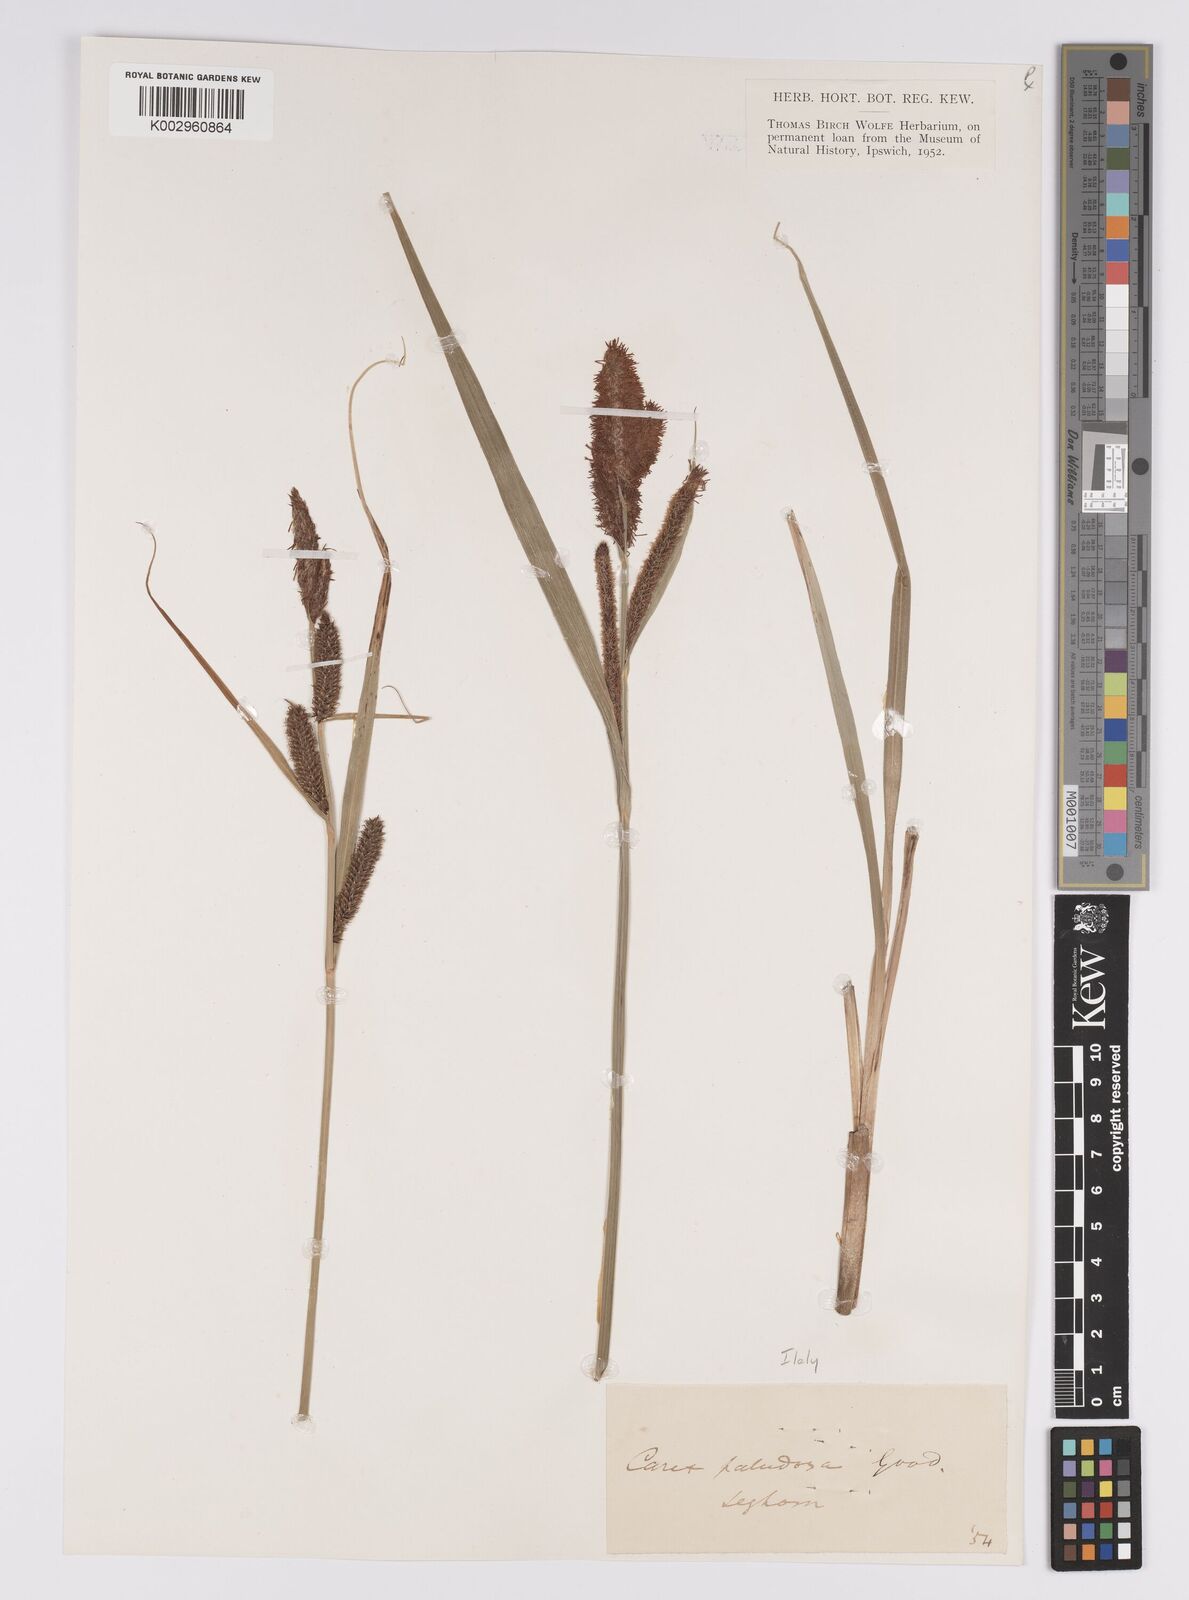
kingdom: Plantae
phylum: Tracheophyta
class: Liliopsida
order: Poales
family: Cyperaceae
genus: Carex
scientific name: Carex acutiformis
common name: Lesser pond-sedge
